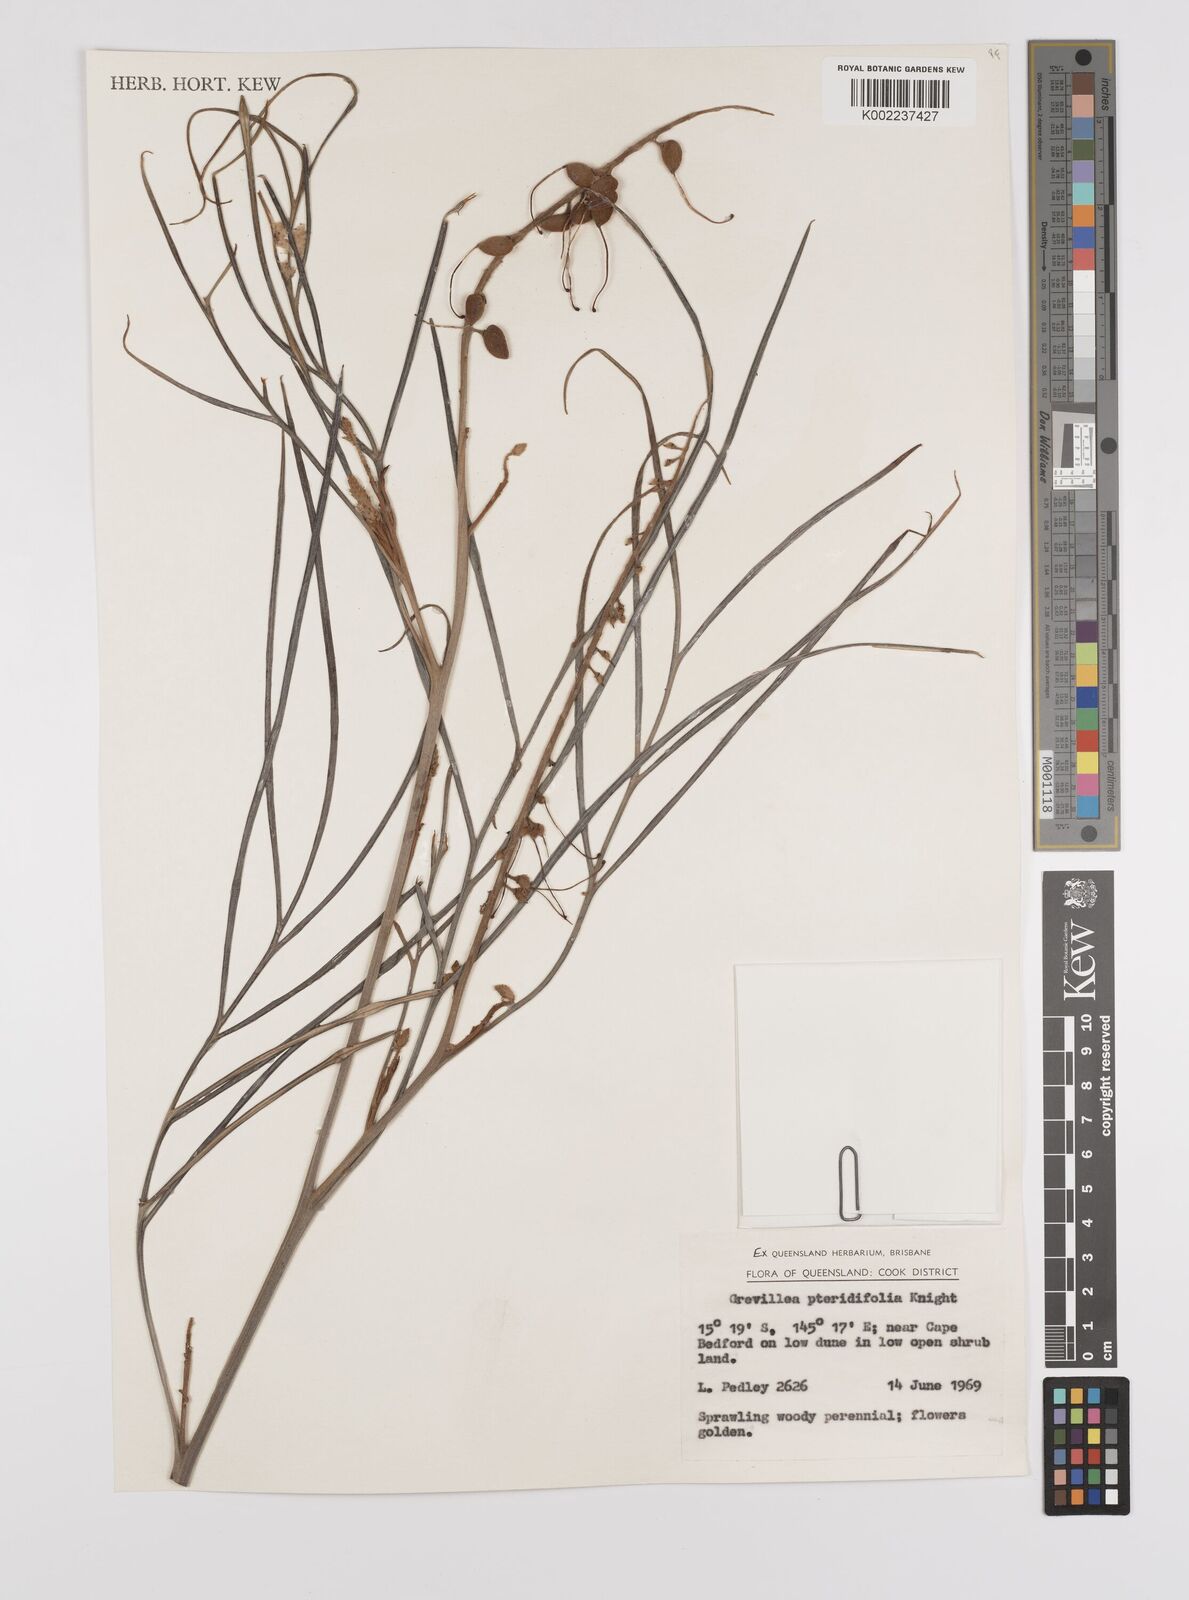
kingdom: Plantae
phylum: Tracheophyta
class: Magnoliopsida
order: Proteales
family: Proteaceae
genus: Grevillea
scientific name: Grevillea pteridifolia
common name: Golden grevillea
